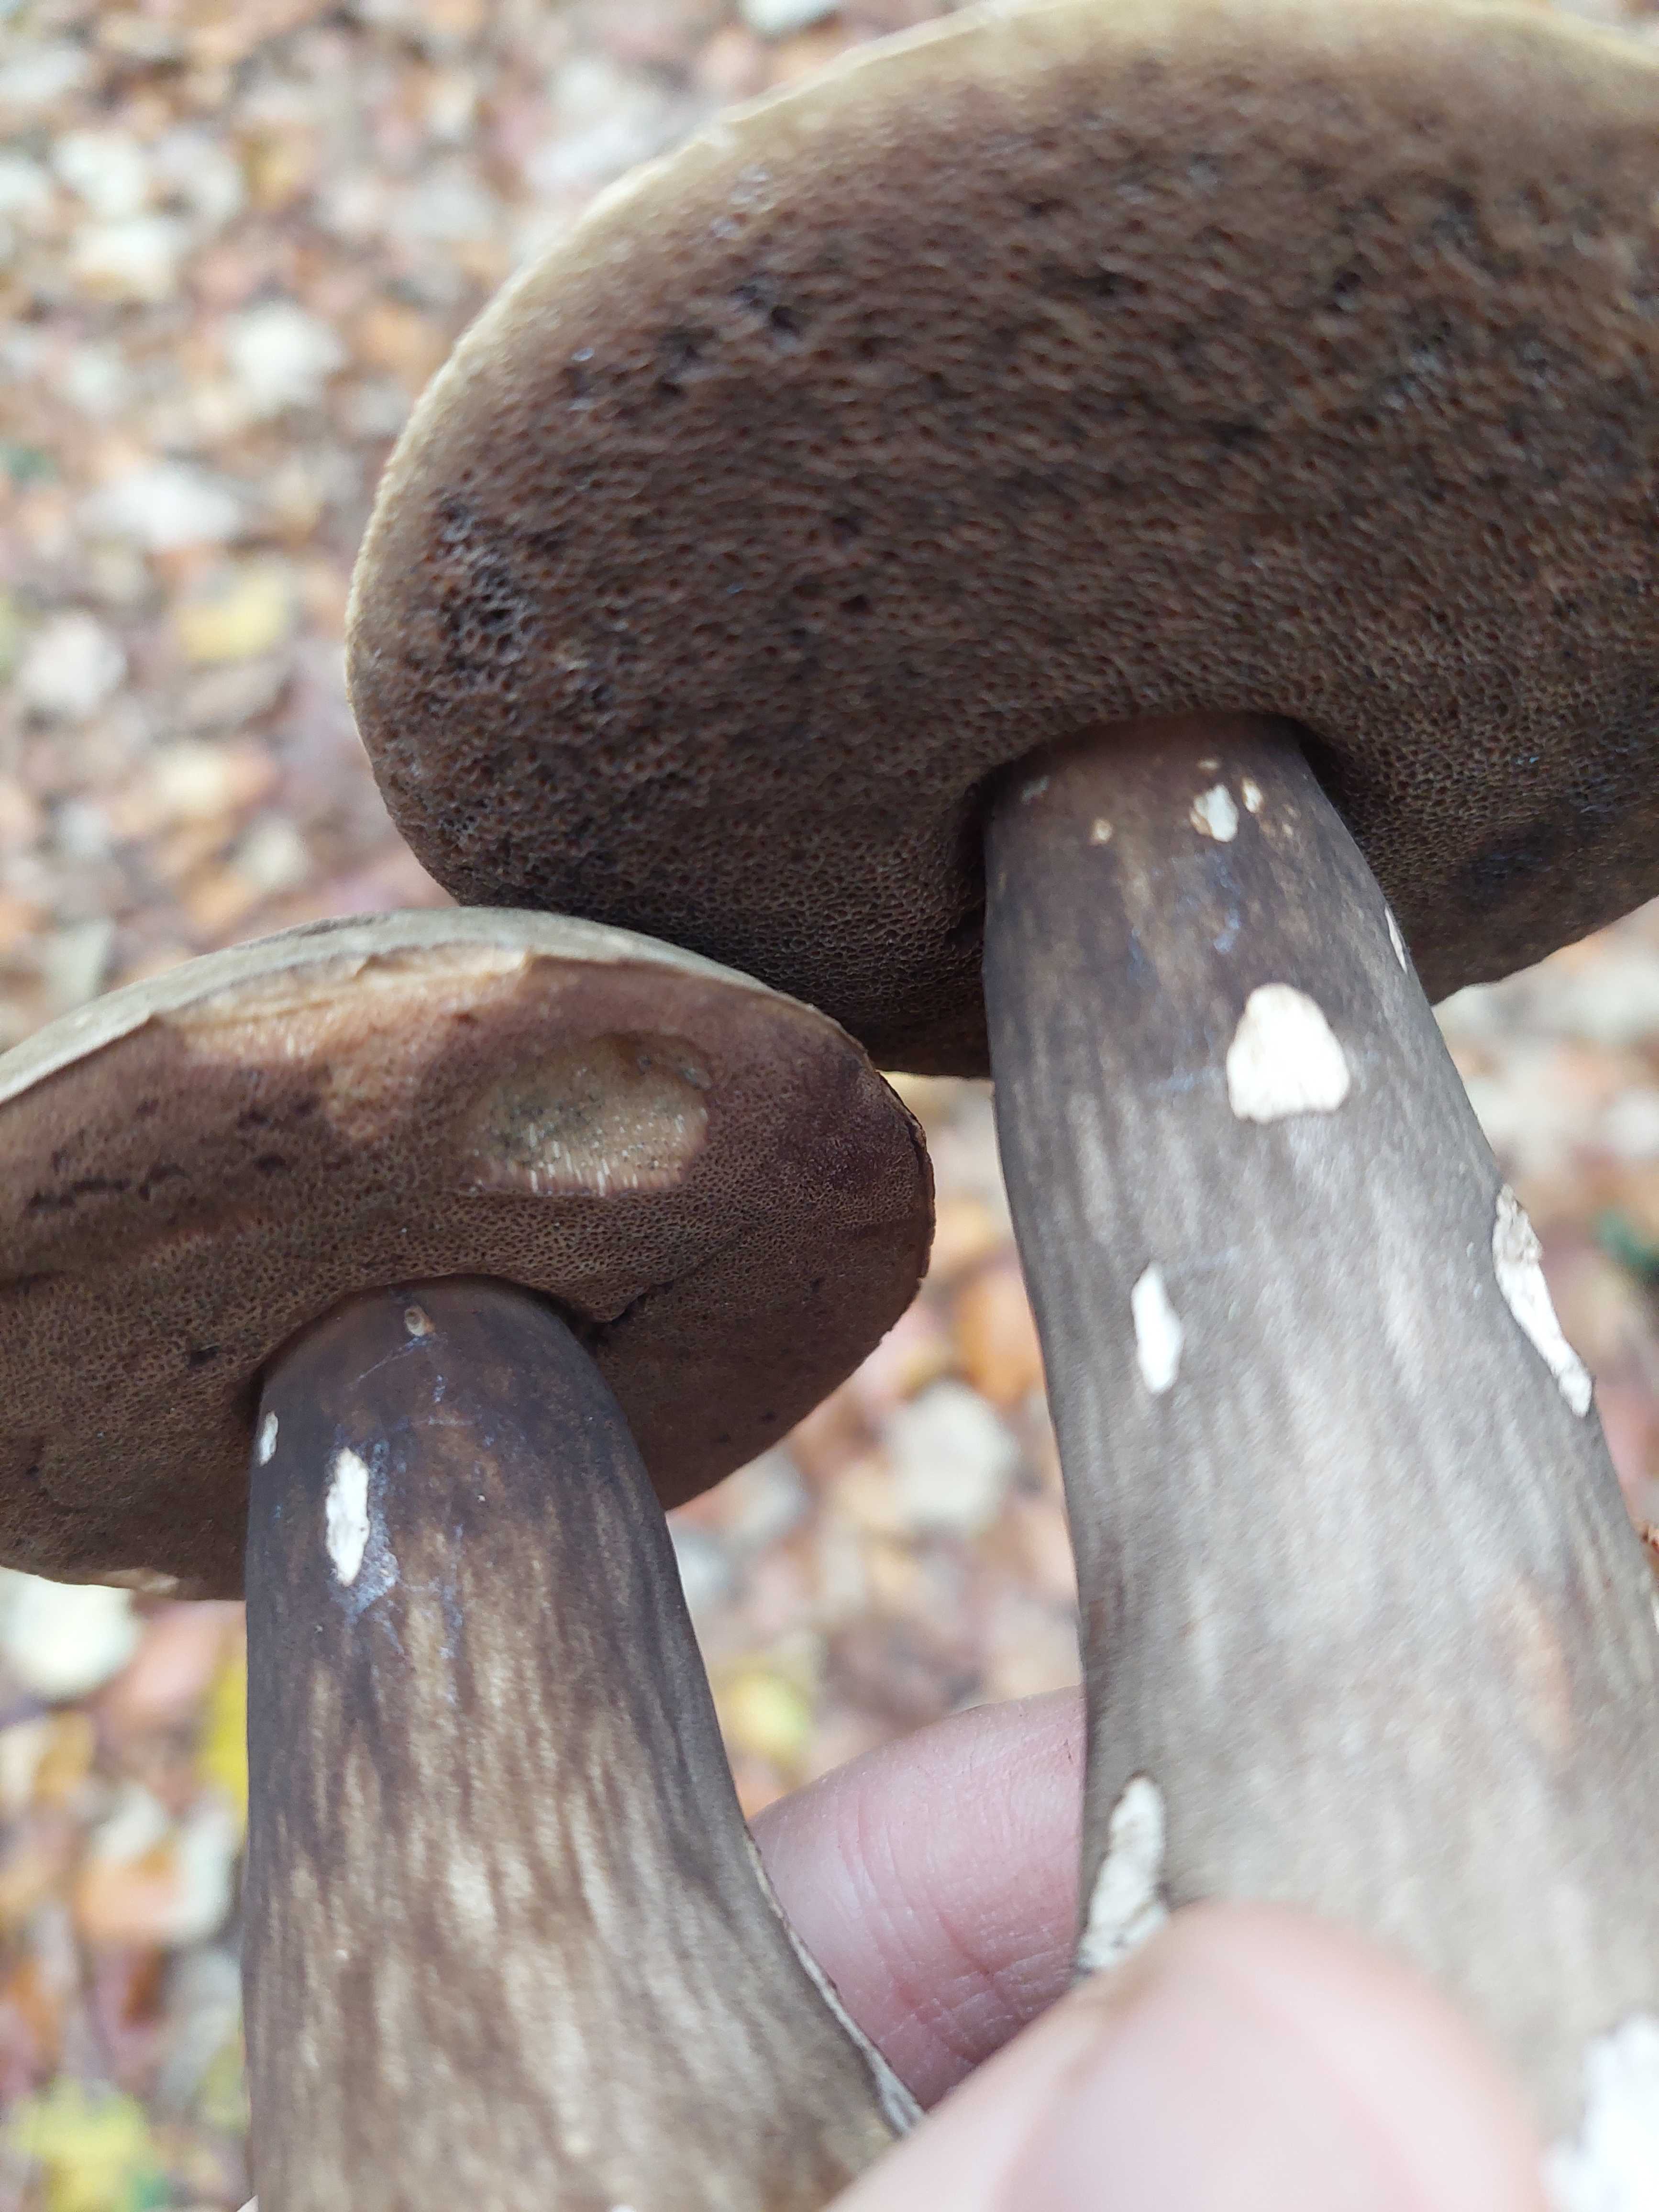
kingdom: Fungi
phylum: Basidiomycota
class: Agaricomycetes
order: Boletales
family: Boletaceae
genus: Porphyrellus
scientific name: Porphyrellus porphyrosporus
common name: sodrørhat
